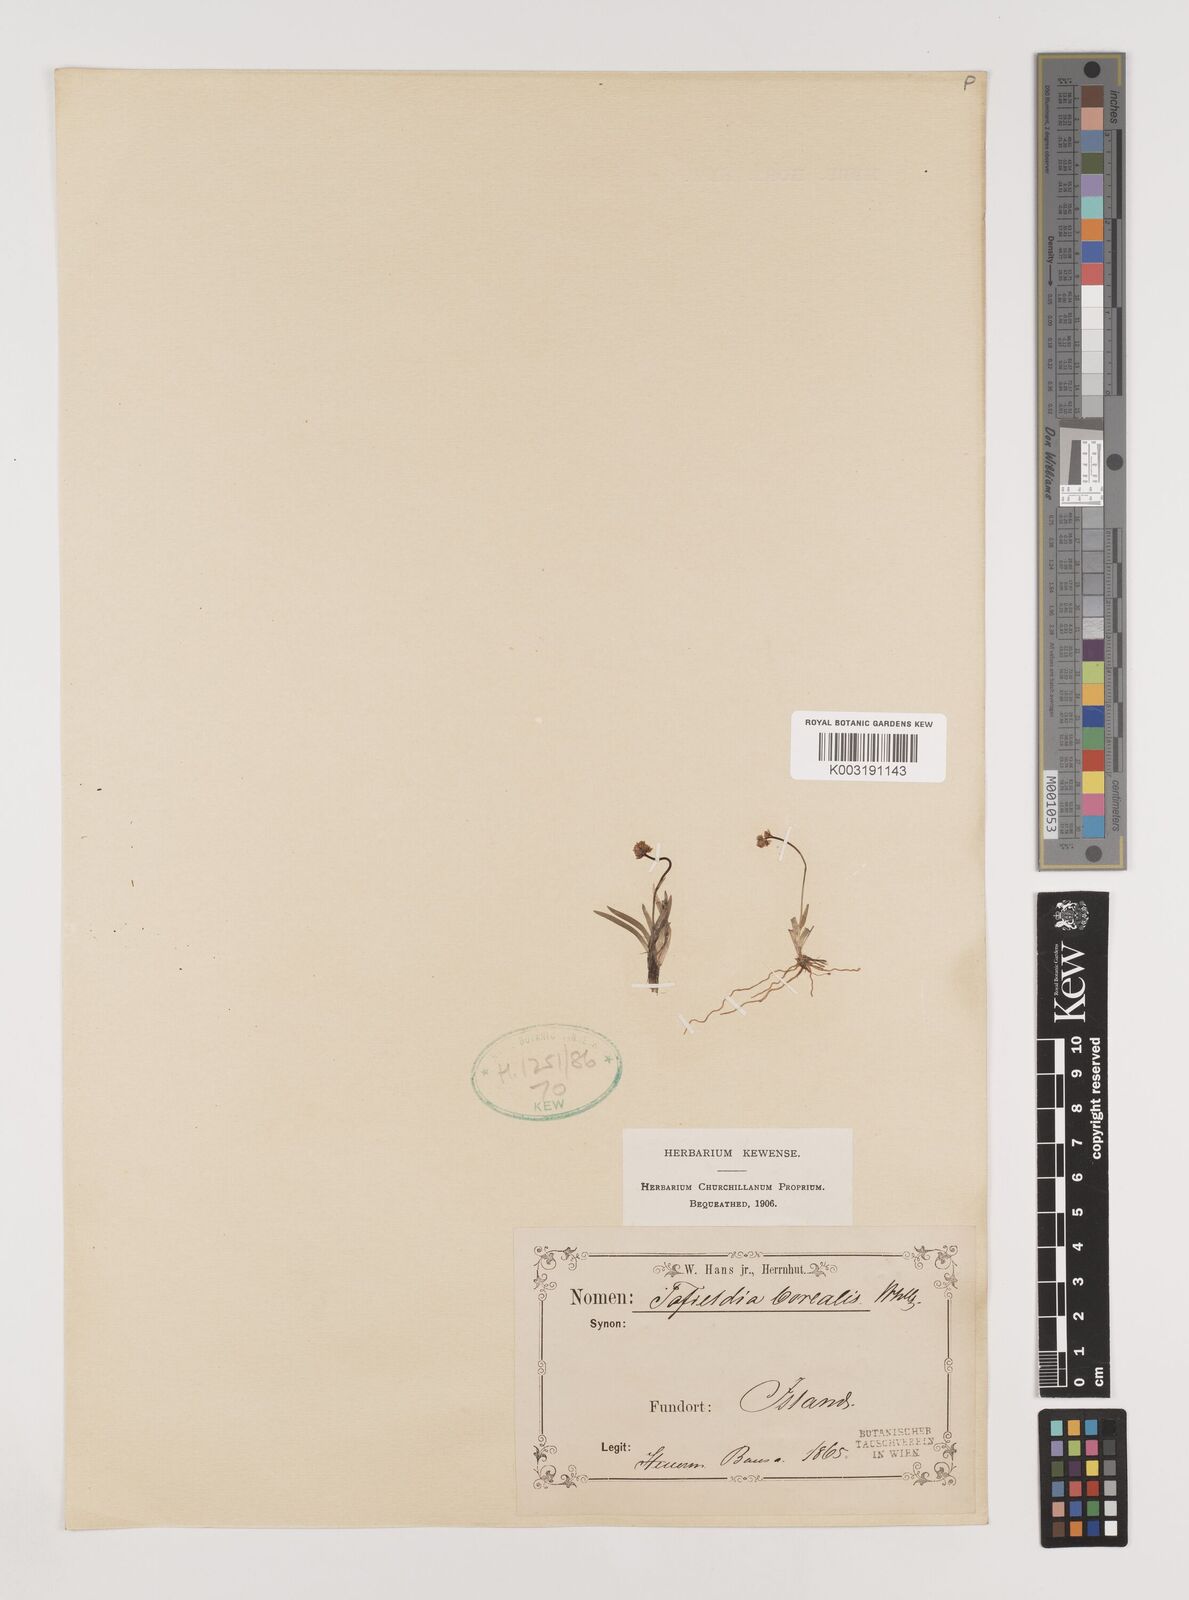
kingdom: Plantae
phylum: Tracheophyta
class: Liliopsida
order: Alismatales
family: Tofieldiaceae
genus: Tofieldia
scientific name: Tofieldia pusilla
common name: Scottish false asphodel
